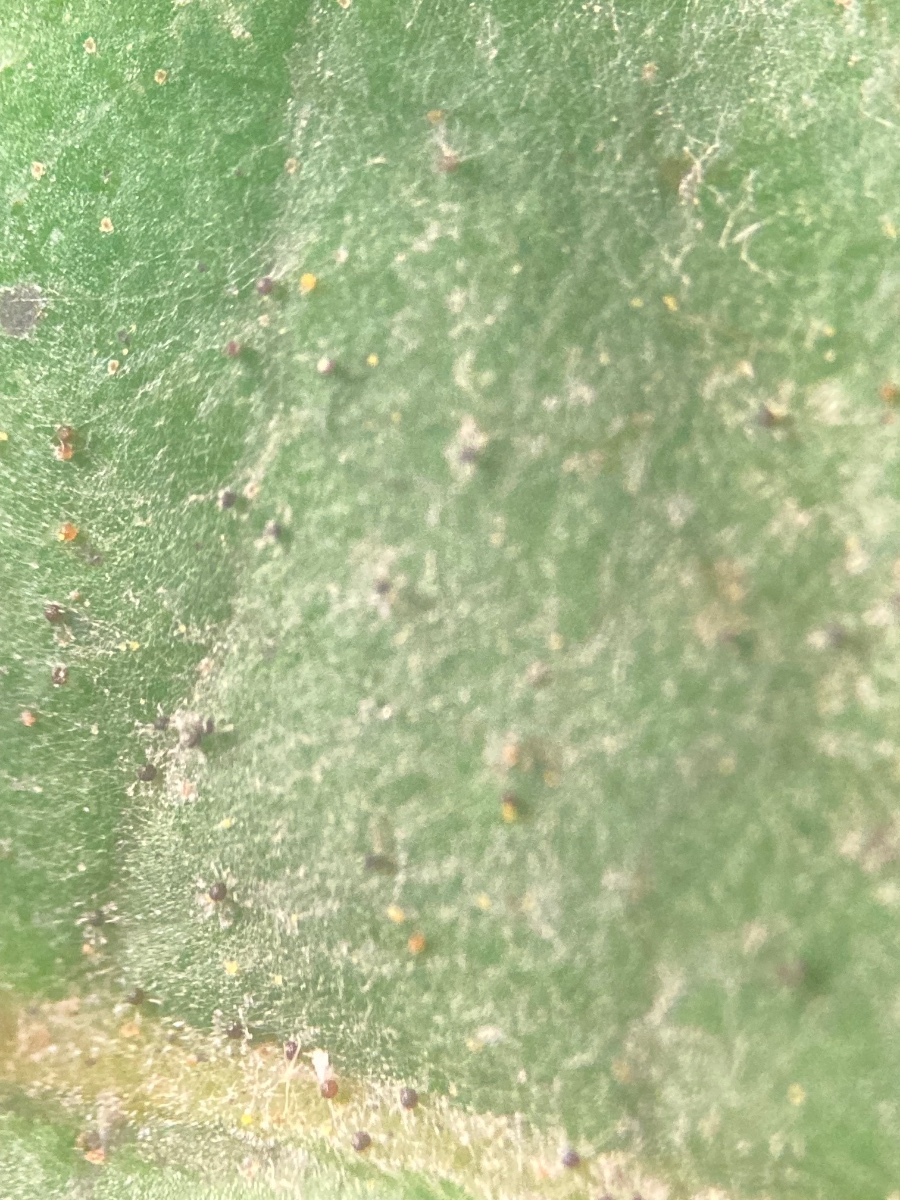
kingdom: Fungi
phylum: Ascomycota
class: Leotiomycetes
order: Helotiales
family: Erysiphaceae
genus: Erysiphe
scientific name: Erysiphe penicillata
